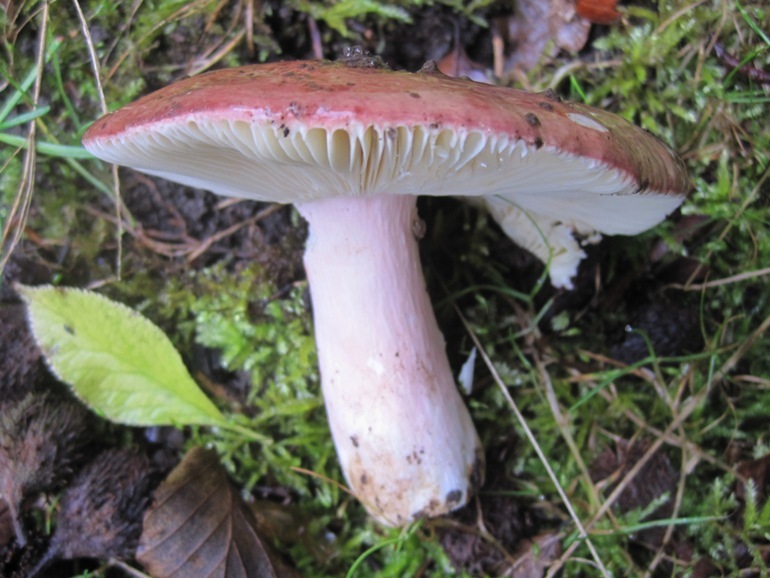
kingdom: Fungi
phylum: Basidiomycota
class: Agaricomycetes
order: Russulales
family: Russulaceae
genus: Russula
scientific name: Russula olivacea
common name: stor skørhat
